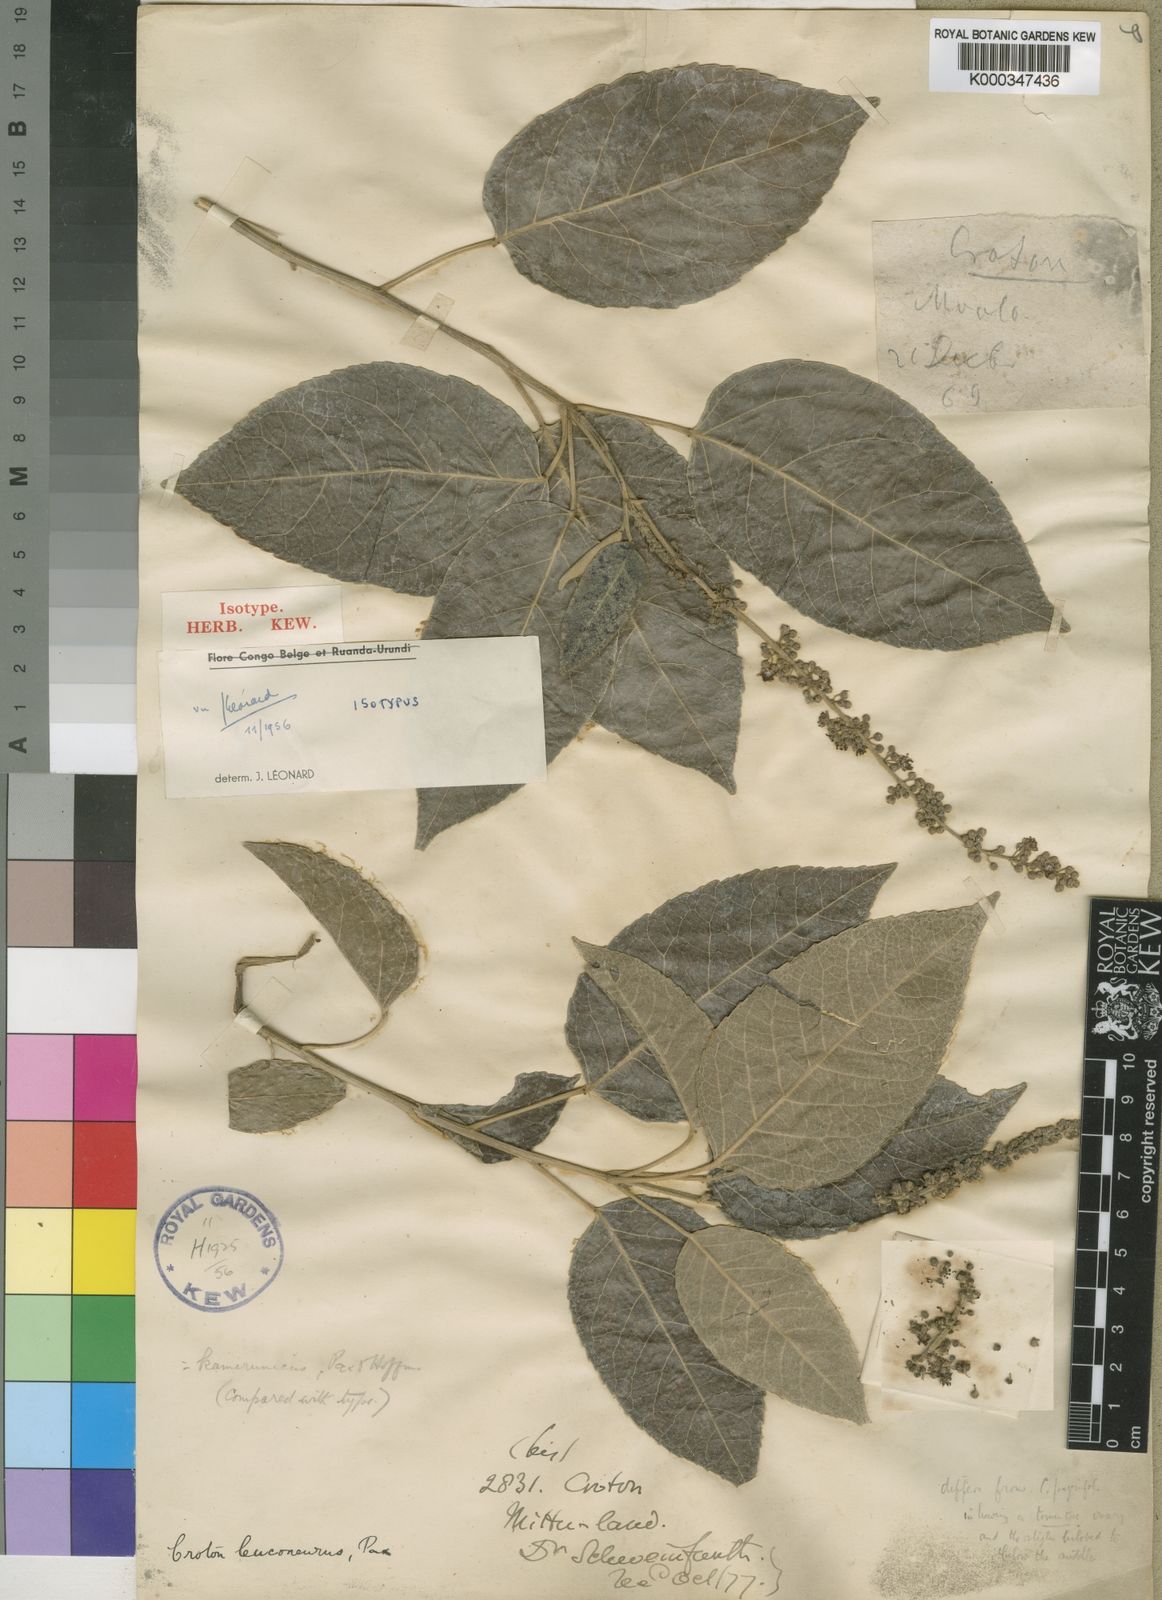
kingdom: Plantae
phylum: Tracheophyta
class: Magnoliopsida
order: Malpighiales
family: Euphorbiaceae
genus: Croton
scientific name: Croton leuconeurus
